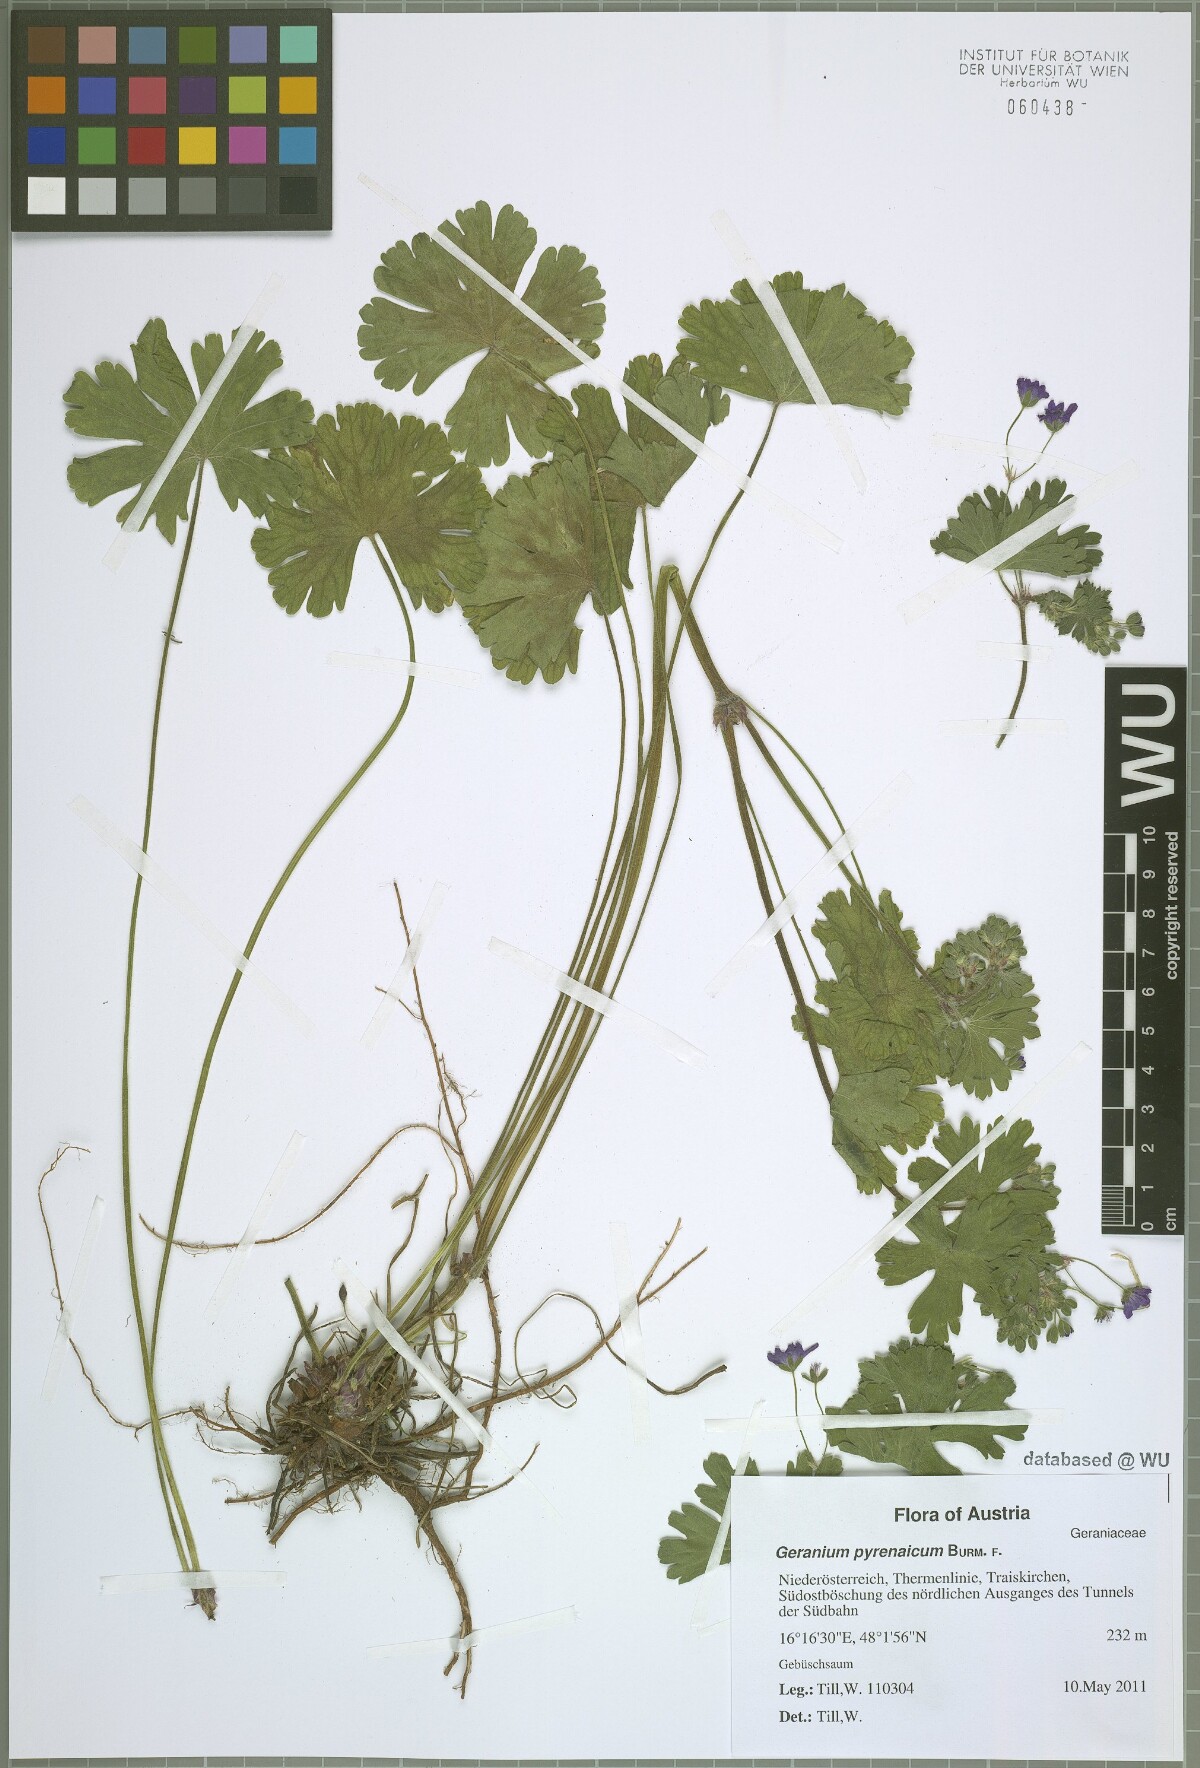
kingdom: Plantae
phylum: Tracheophyta
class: Magnoliopsida
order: Geraniales
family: Geraniaceae
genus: Geranium
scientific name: Geranium pyrenaicum
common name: Hedgerow crane's-bill
